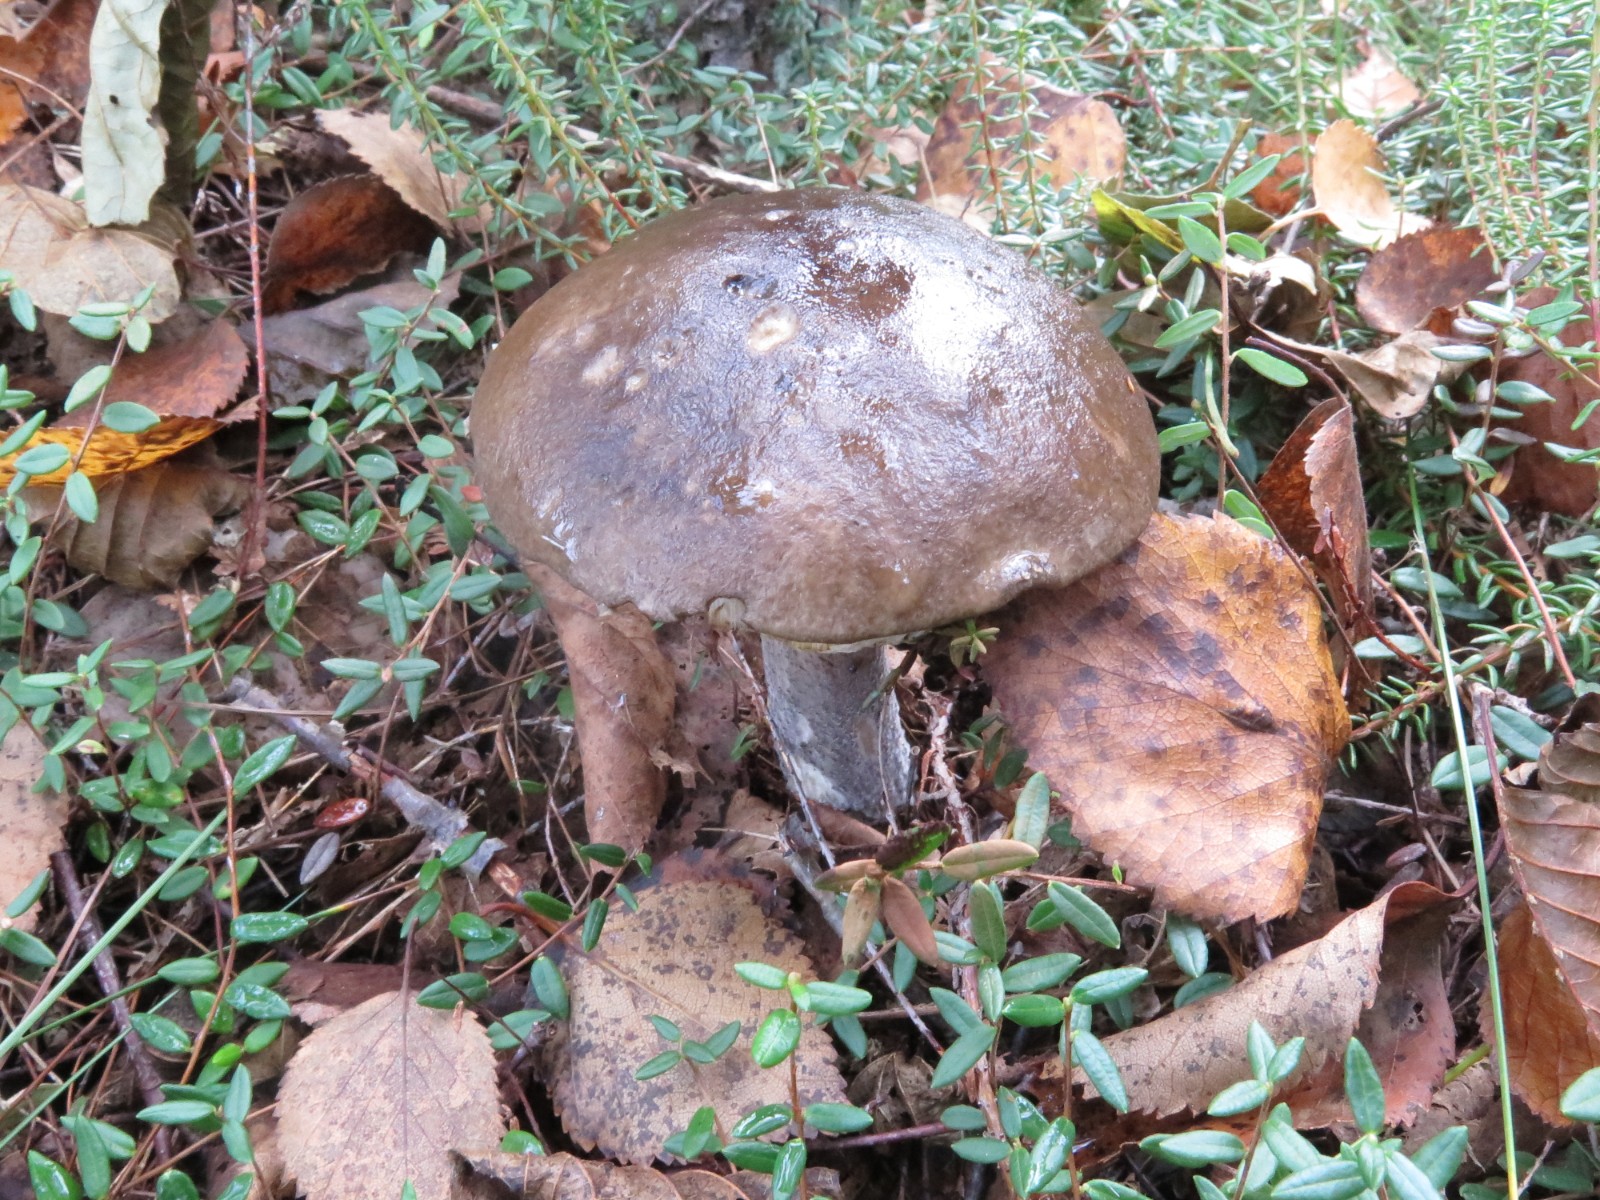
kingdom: Fungi
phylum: Basidiomycota
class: Agaricomycetes
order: Boletales
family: Boletaceae
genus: Leccinum
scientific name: Leccinum scabrum
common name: brun skælrørhat
